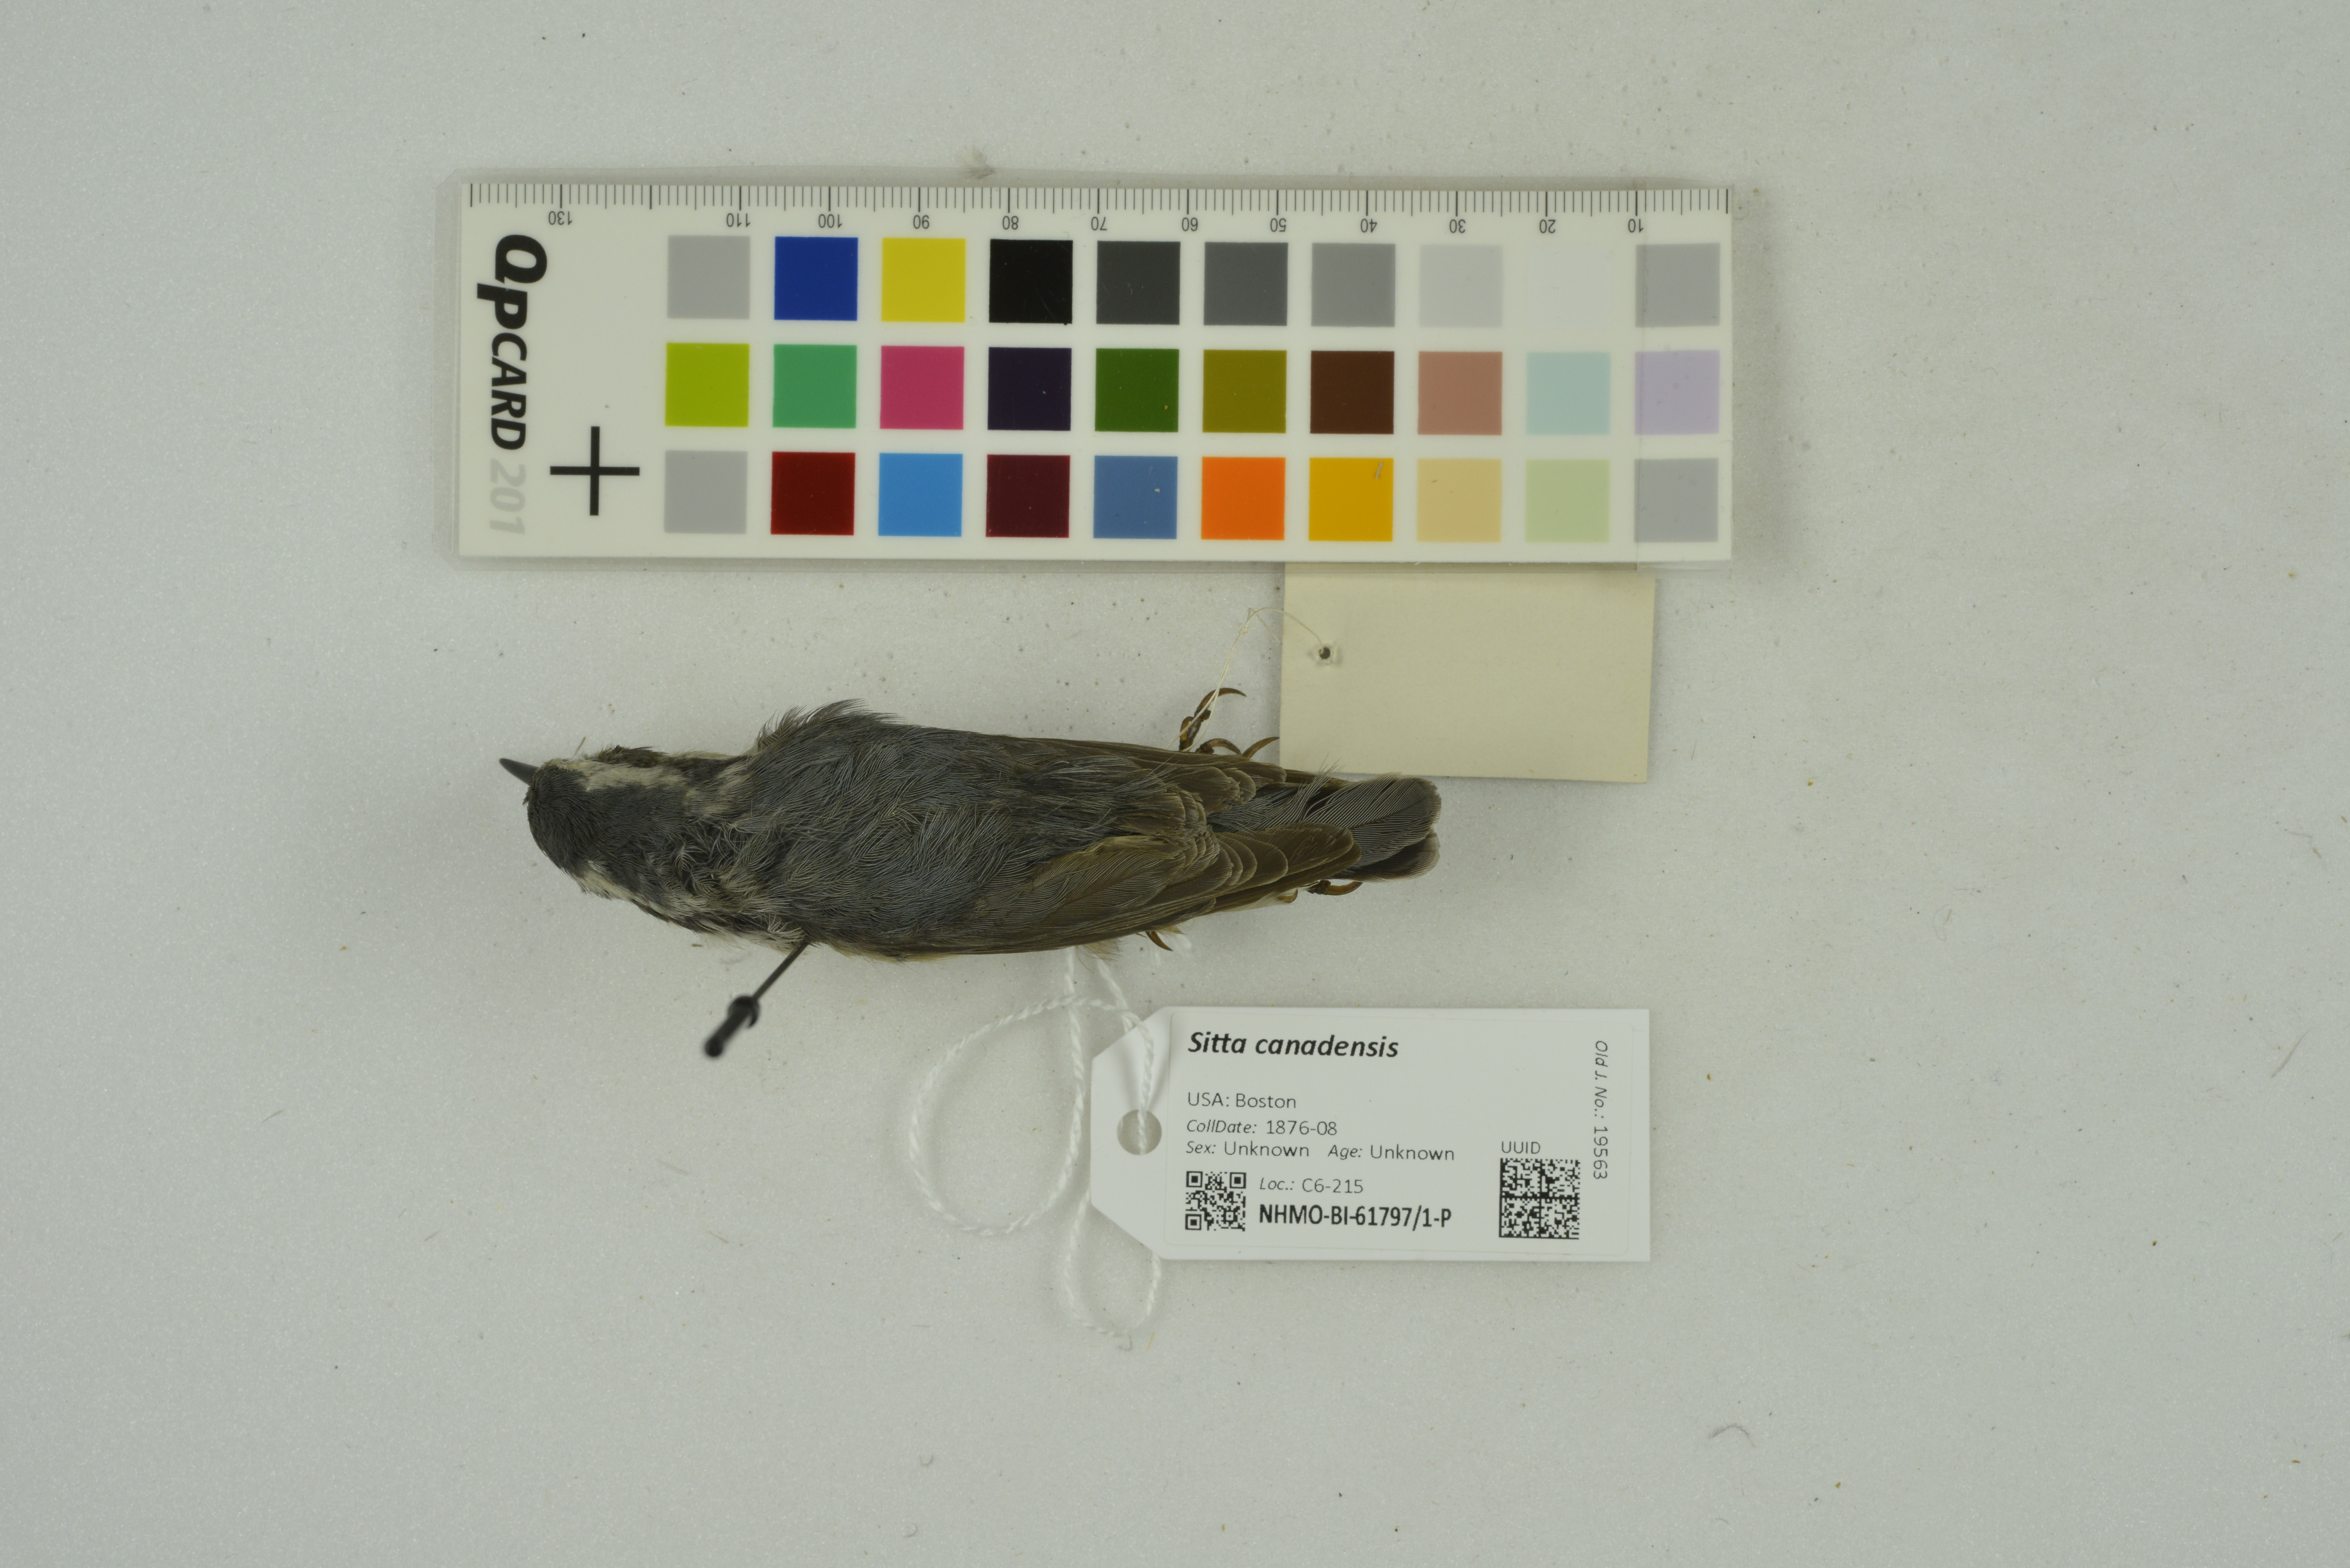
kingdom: Animalia
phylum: Chordata
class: Aves
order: Passeriformes
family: Sittidae
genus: Sitta
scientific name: Sitta canadensis
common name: Red-breasted nuthatch
